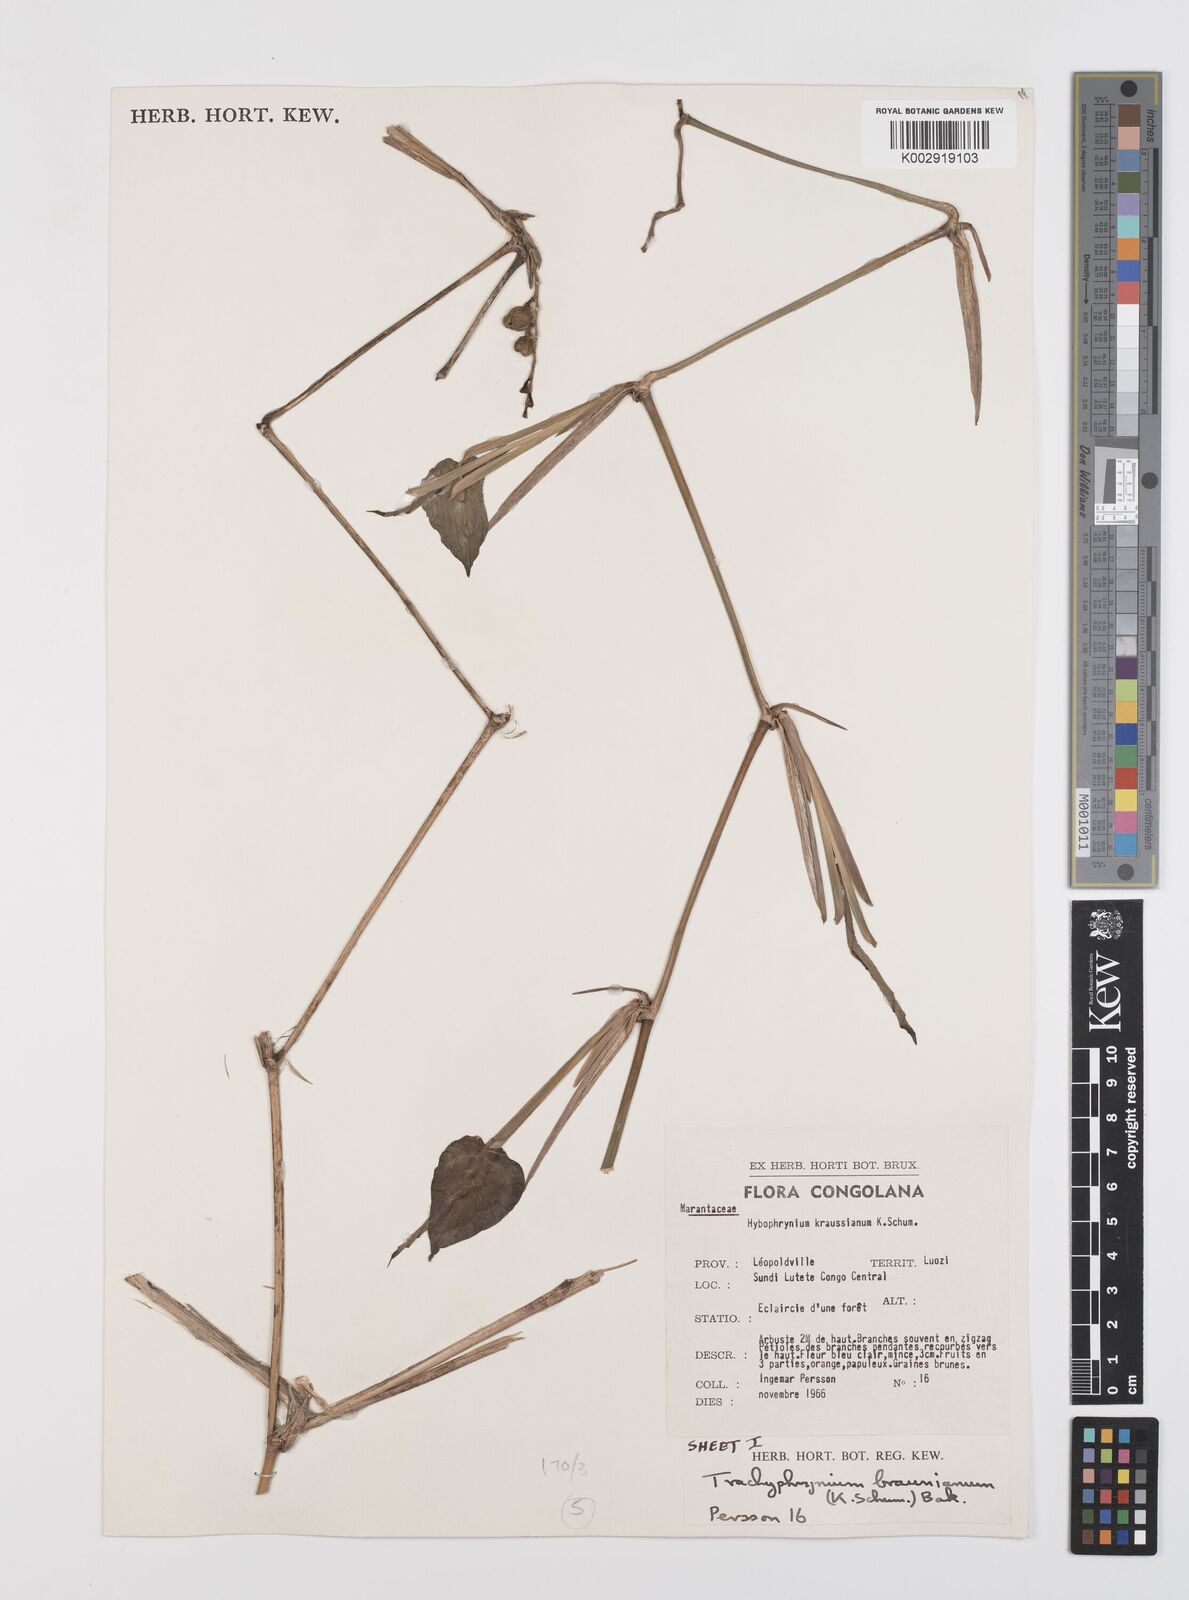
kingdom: Plantae
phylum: Tracheophyta
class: Liliopsida
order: Zingiberales
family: Marantaceae
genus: Trachyphrynium
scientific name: Trachyphrynium braunianum
